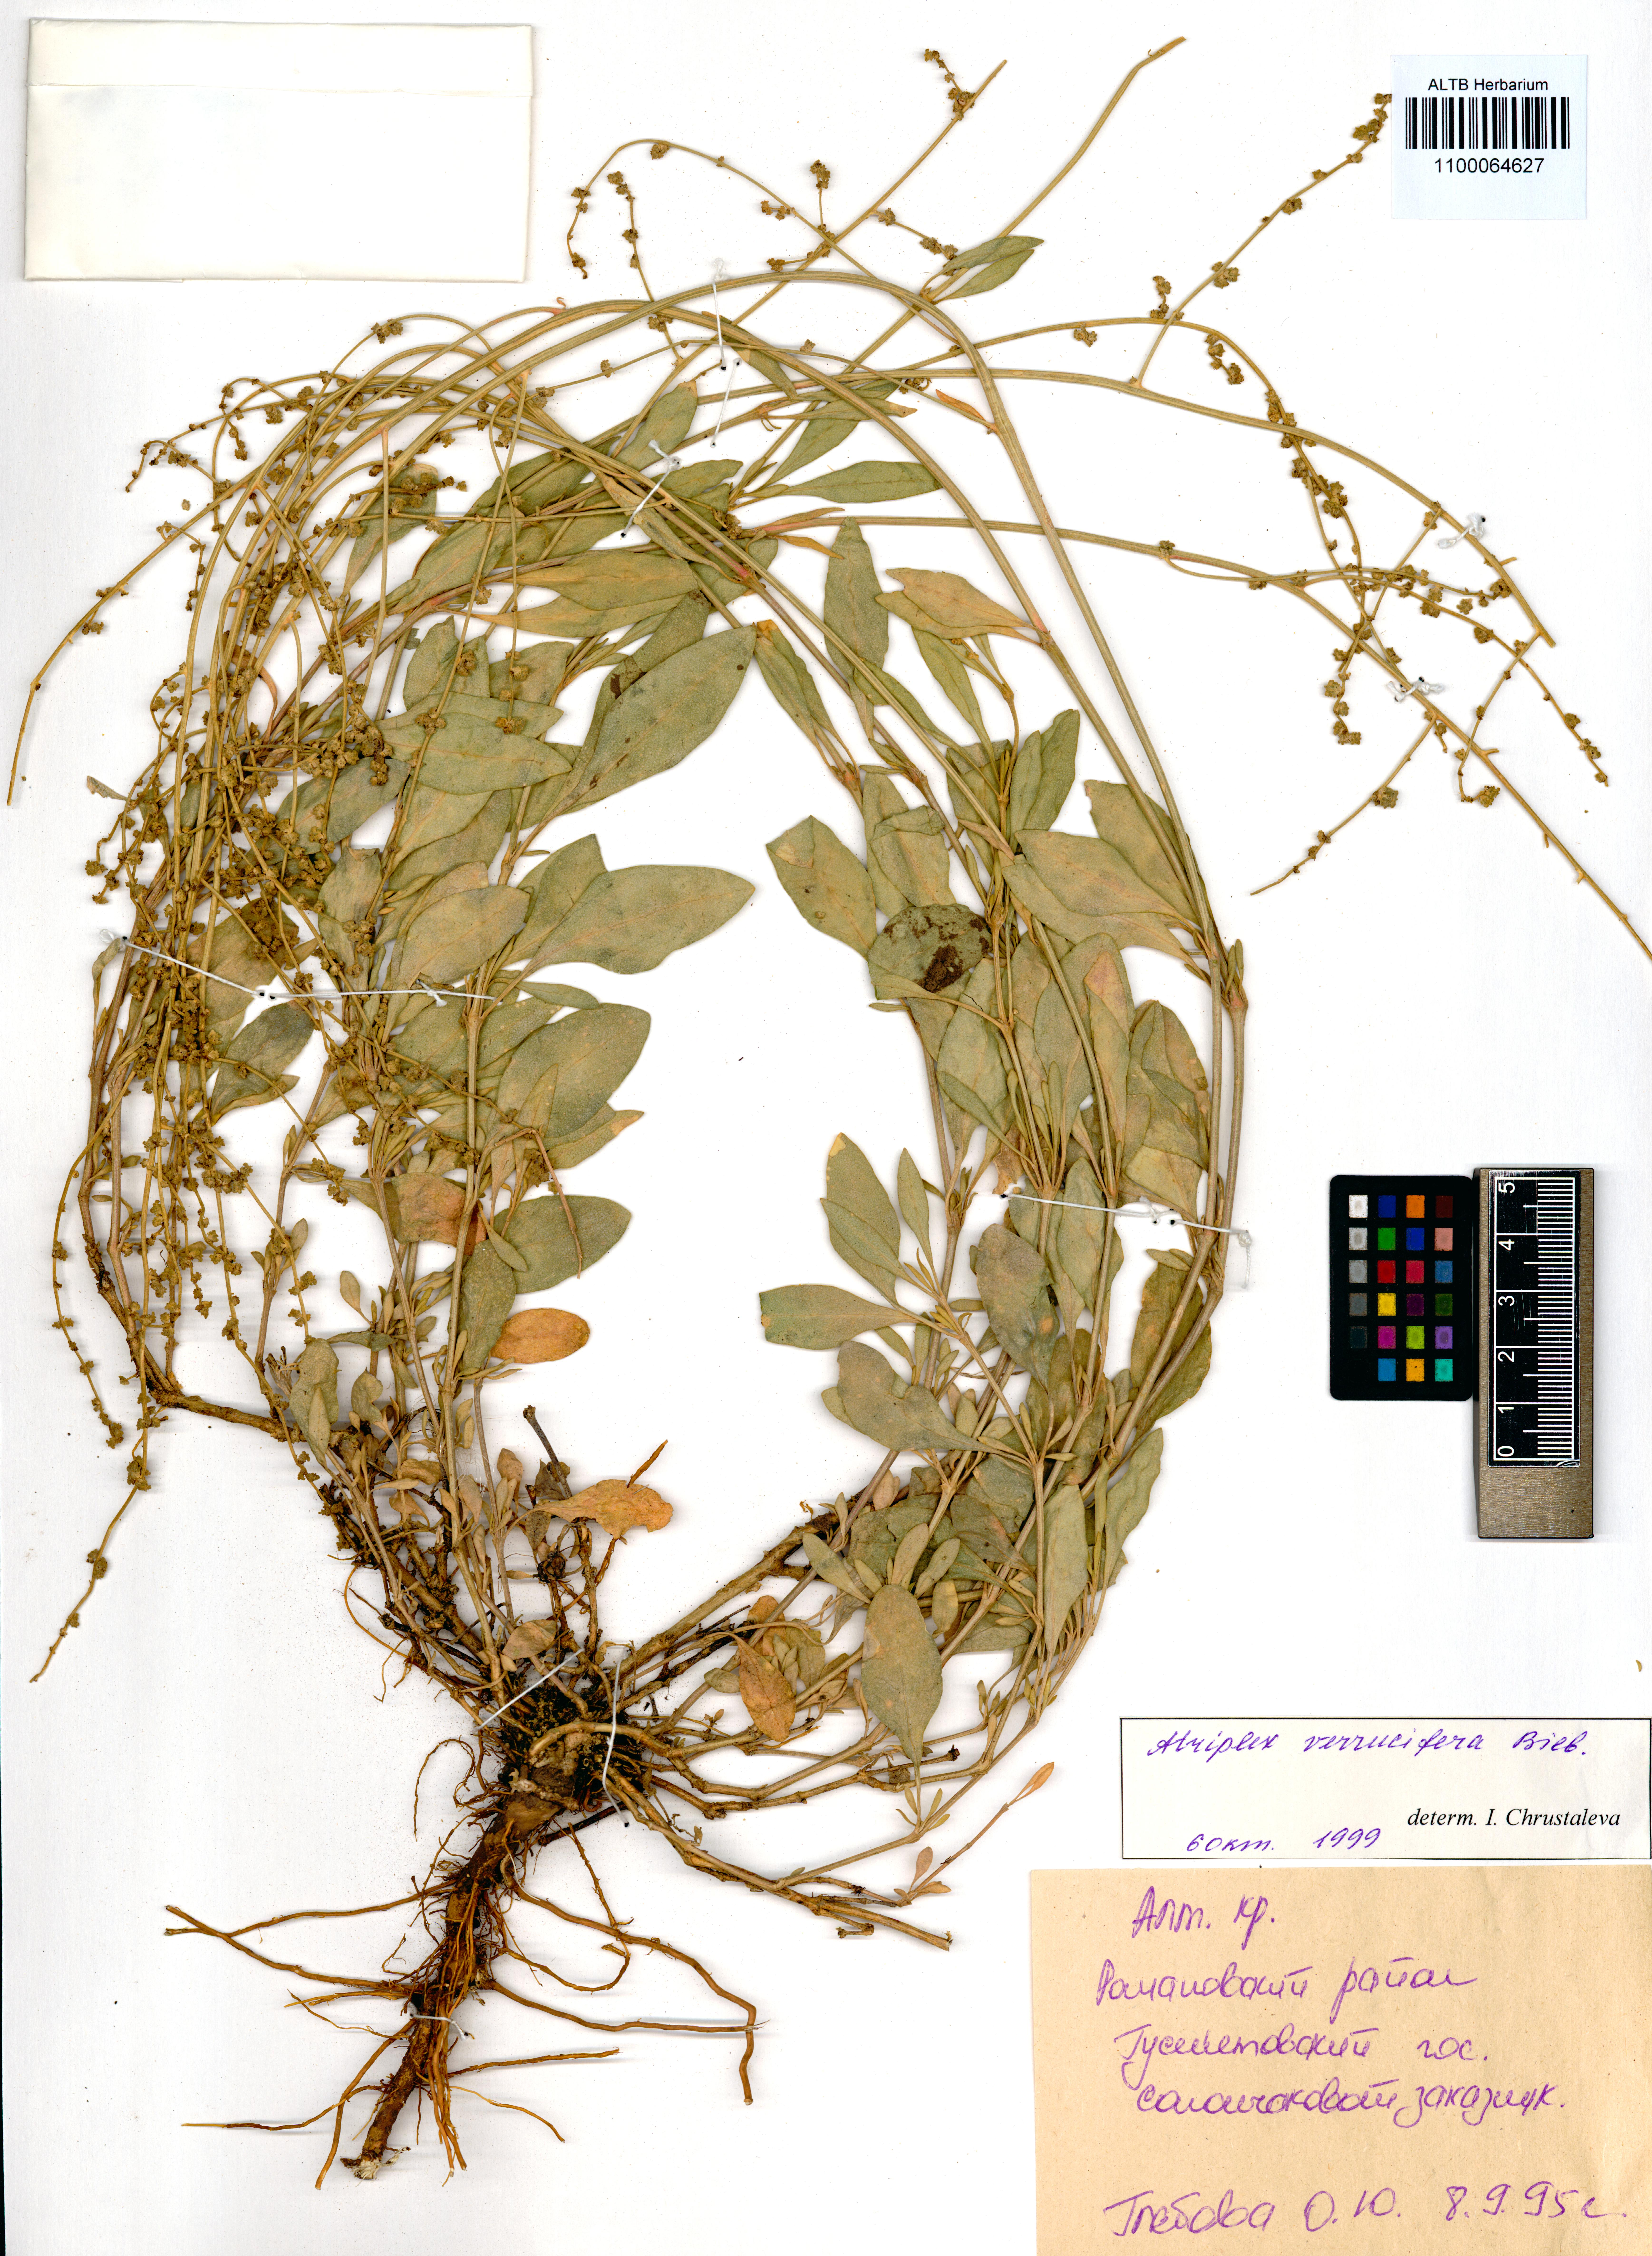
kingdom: Plantae
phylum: Tracheophyta
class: Magnoliopsida
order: Caryophyllales
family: Amaranthaceae
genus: Halimione
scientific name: Halimione verrucifera
